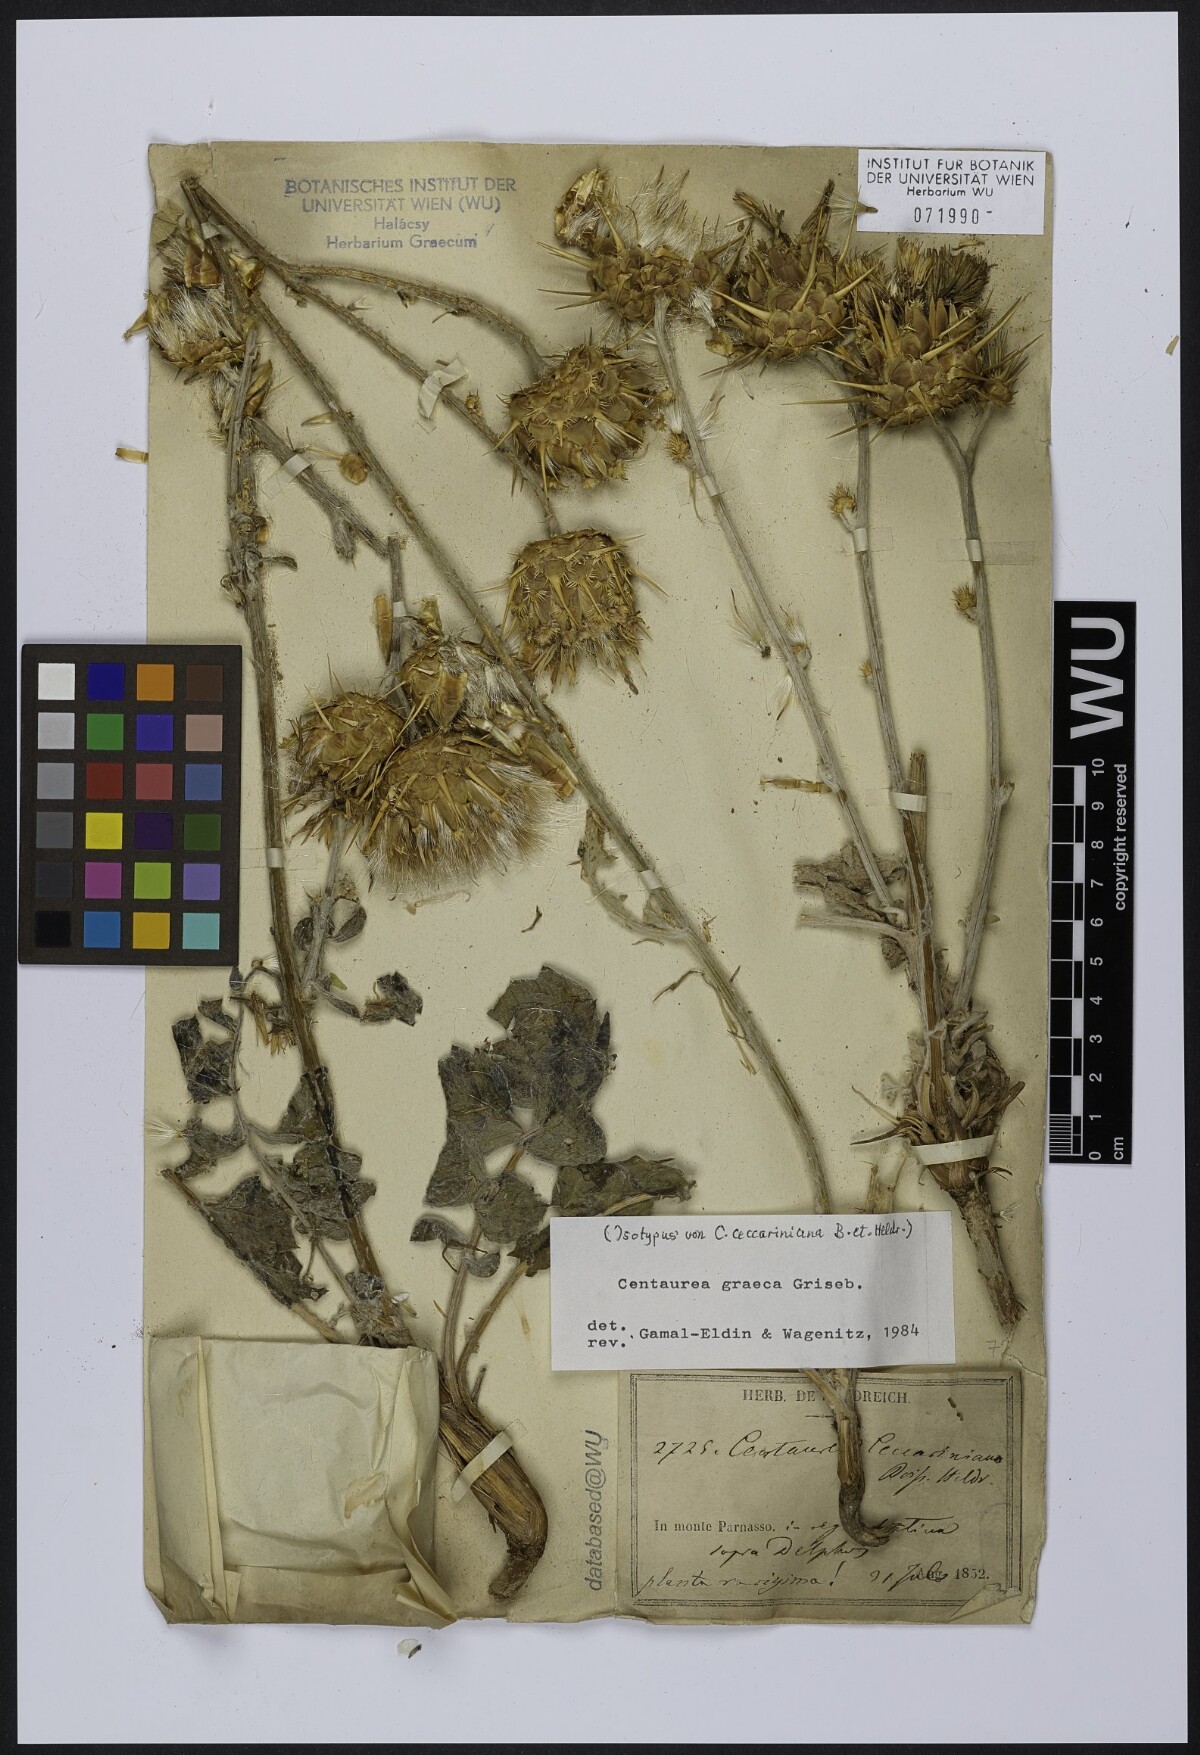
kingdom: Plantae
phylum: Tracheophyta
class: Magnoliopsida
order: Asterales
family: Asteraceae
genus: Centaurea
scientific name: Centaurea graeca
